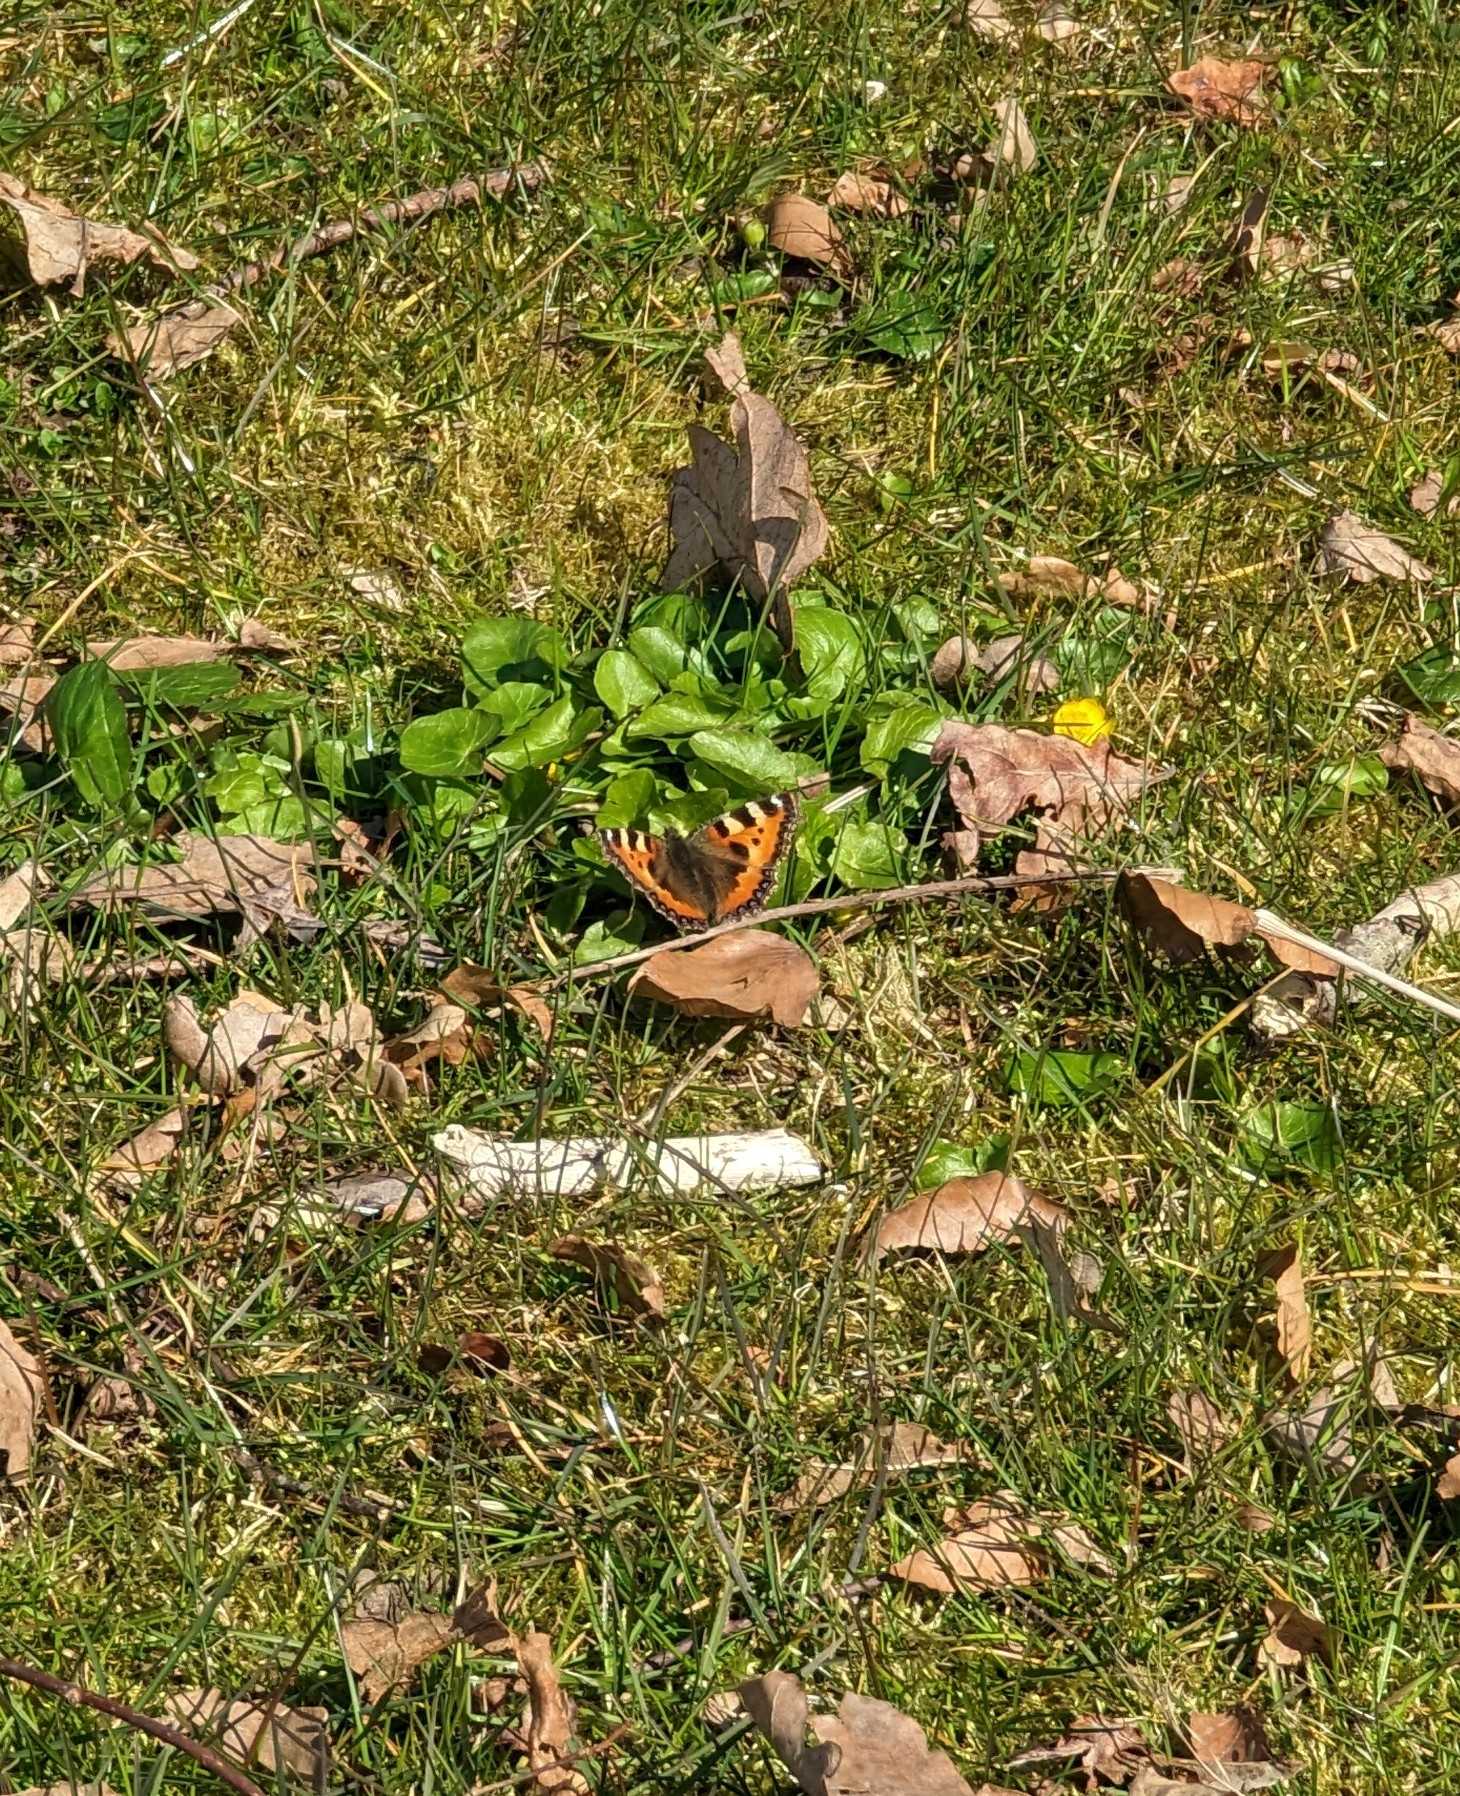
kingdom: Animalia
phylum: Arthropoda
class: Insecta
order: Lepidoptera
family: Nymphalidae
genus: Aglais
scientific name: Aglais urticae
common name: Nældens takvinge
